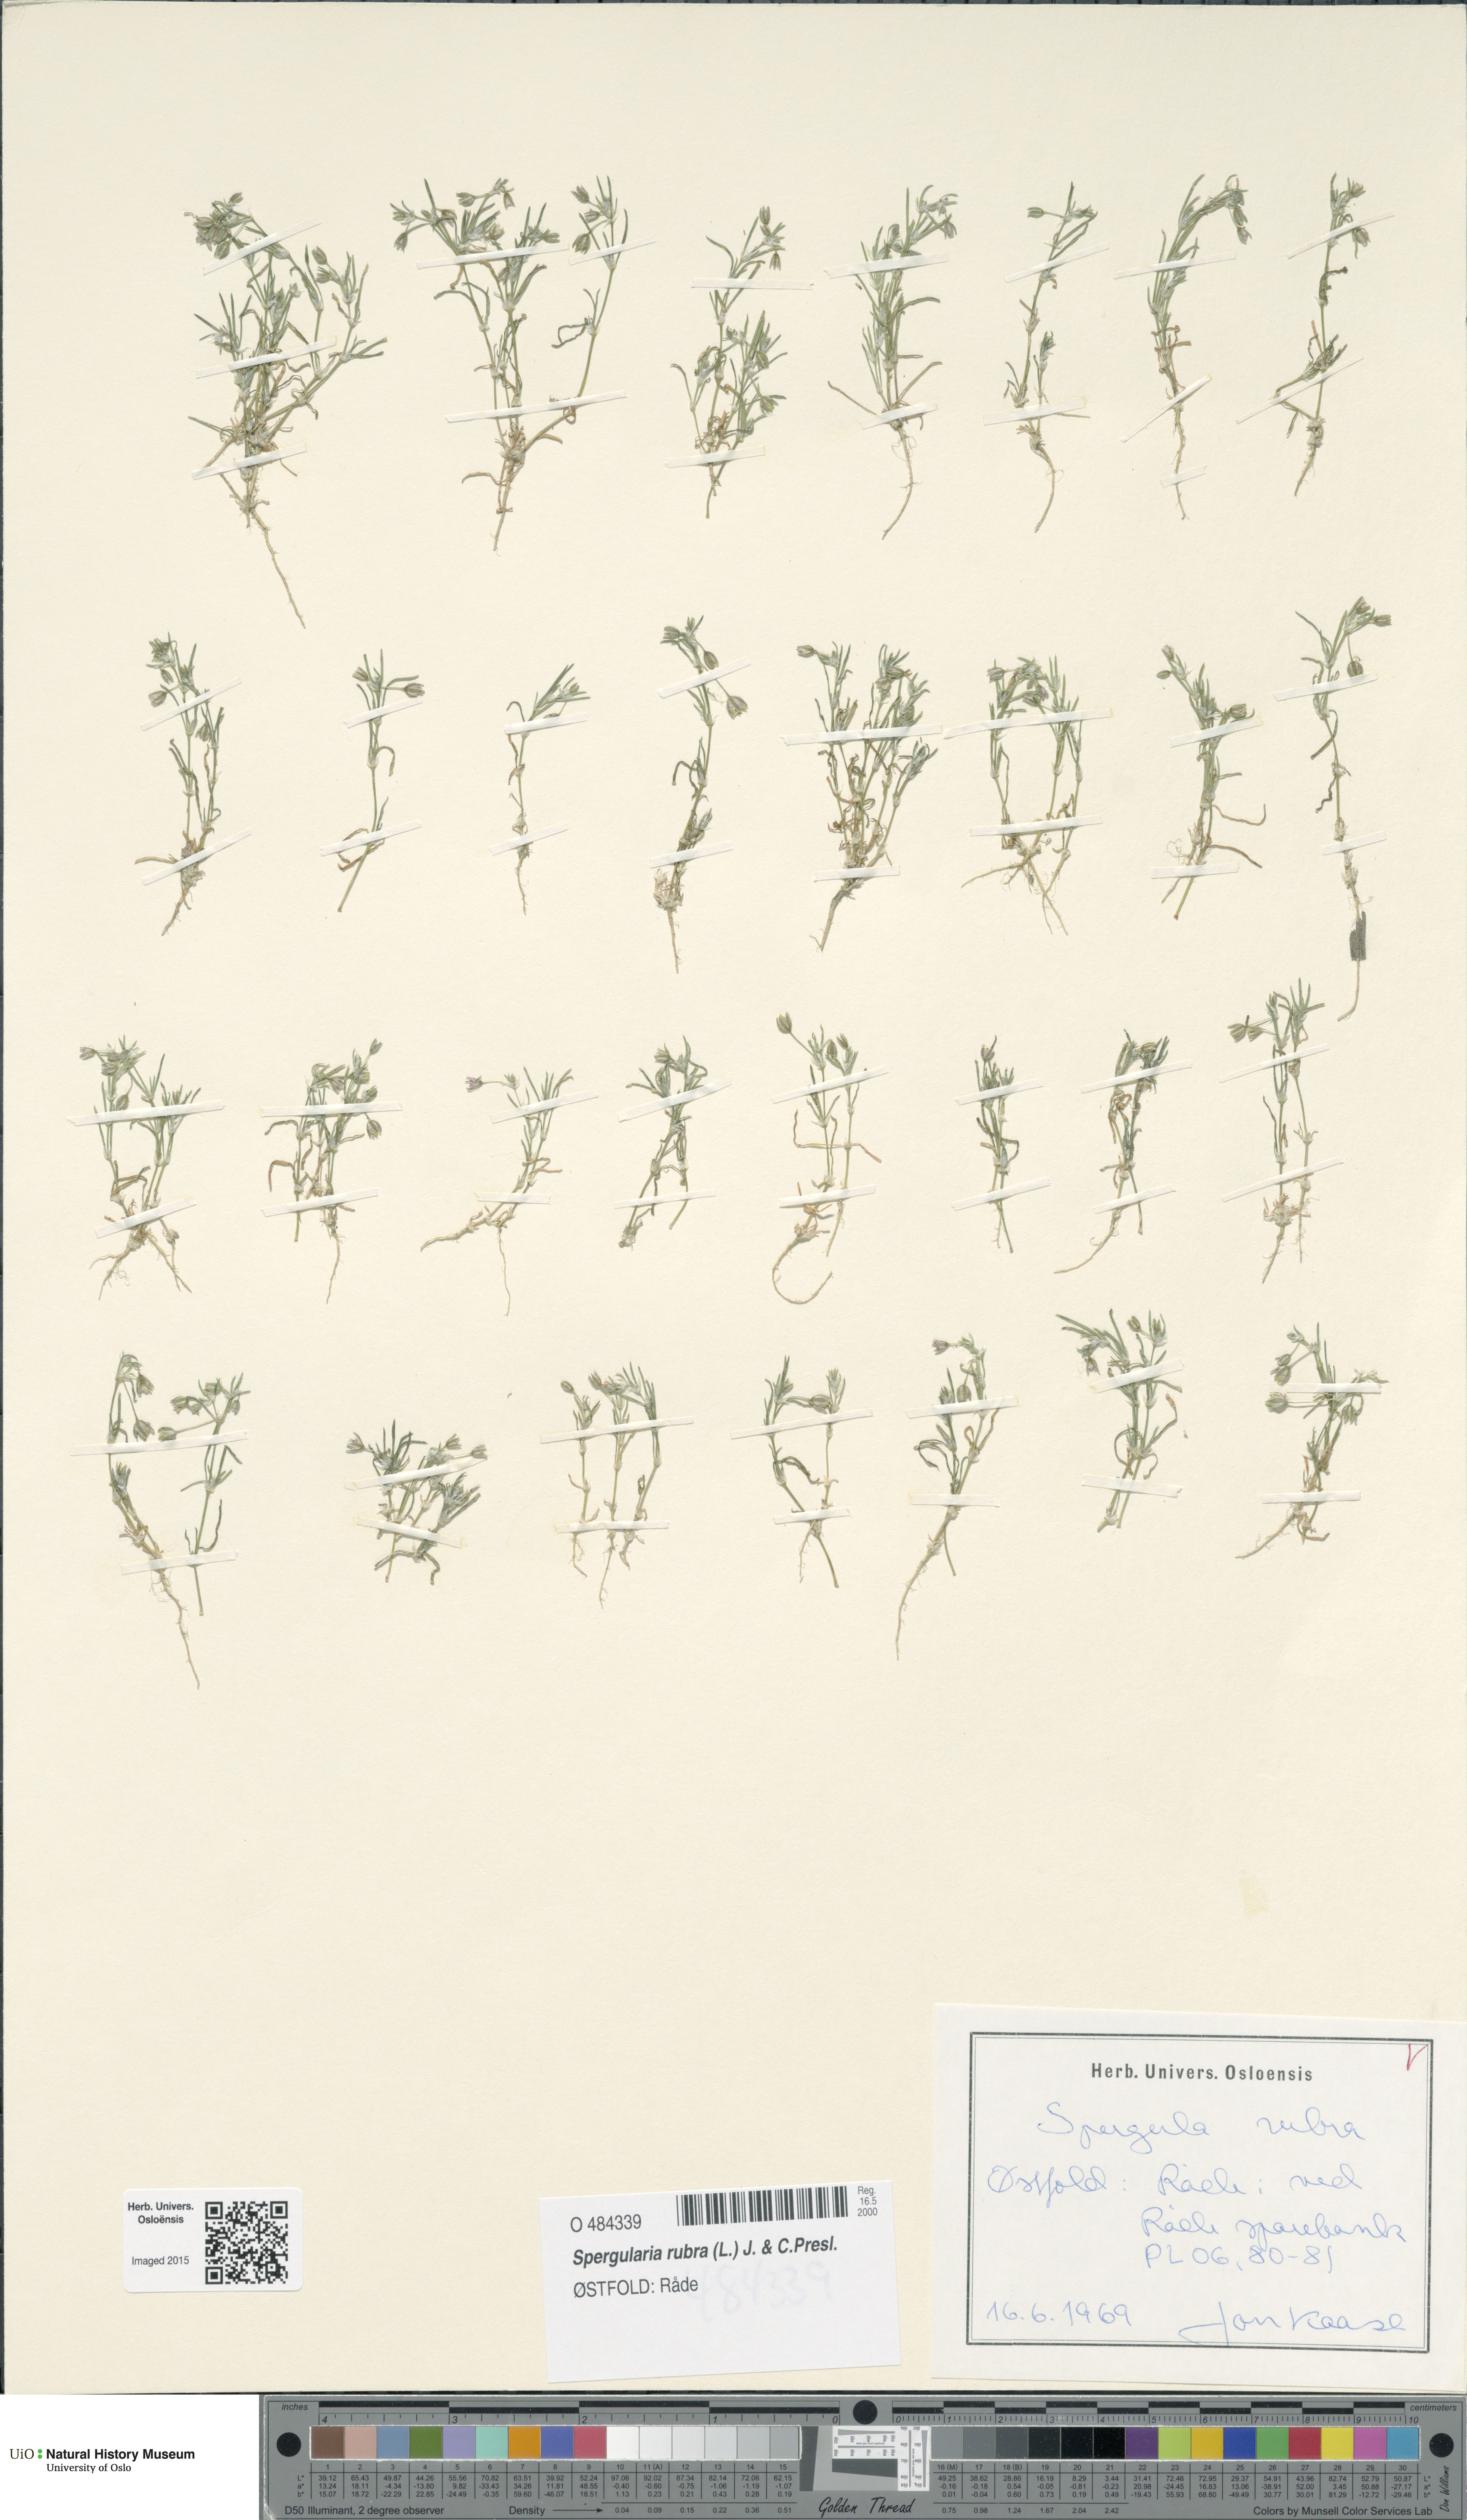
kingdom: Plantae
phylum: Tracheophyta
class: Magnoliopsida
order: Caryophyllales
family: Caryophyllaceae
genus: Spergularia
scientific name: Spergularia rubra
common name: Red sand-spurrey
